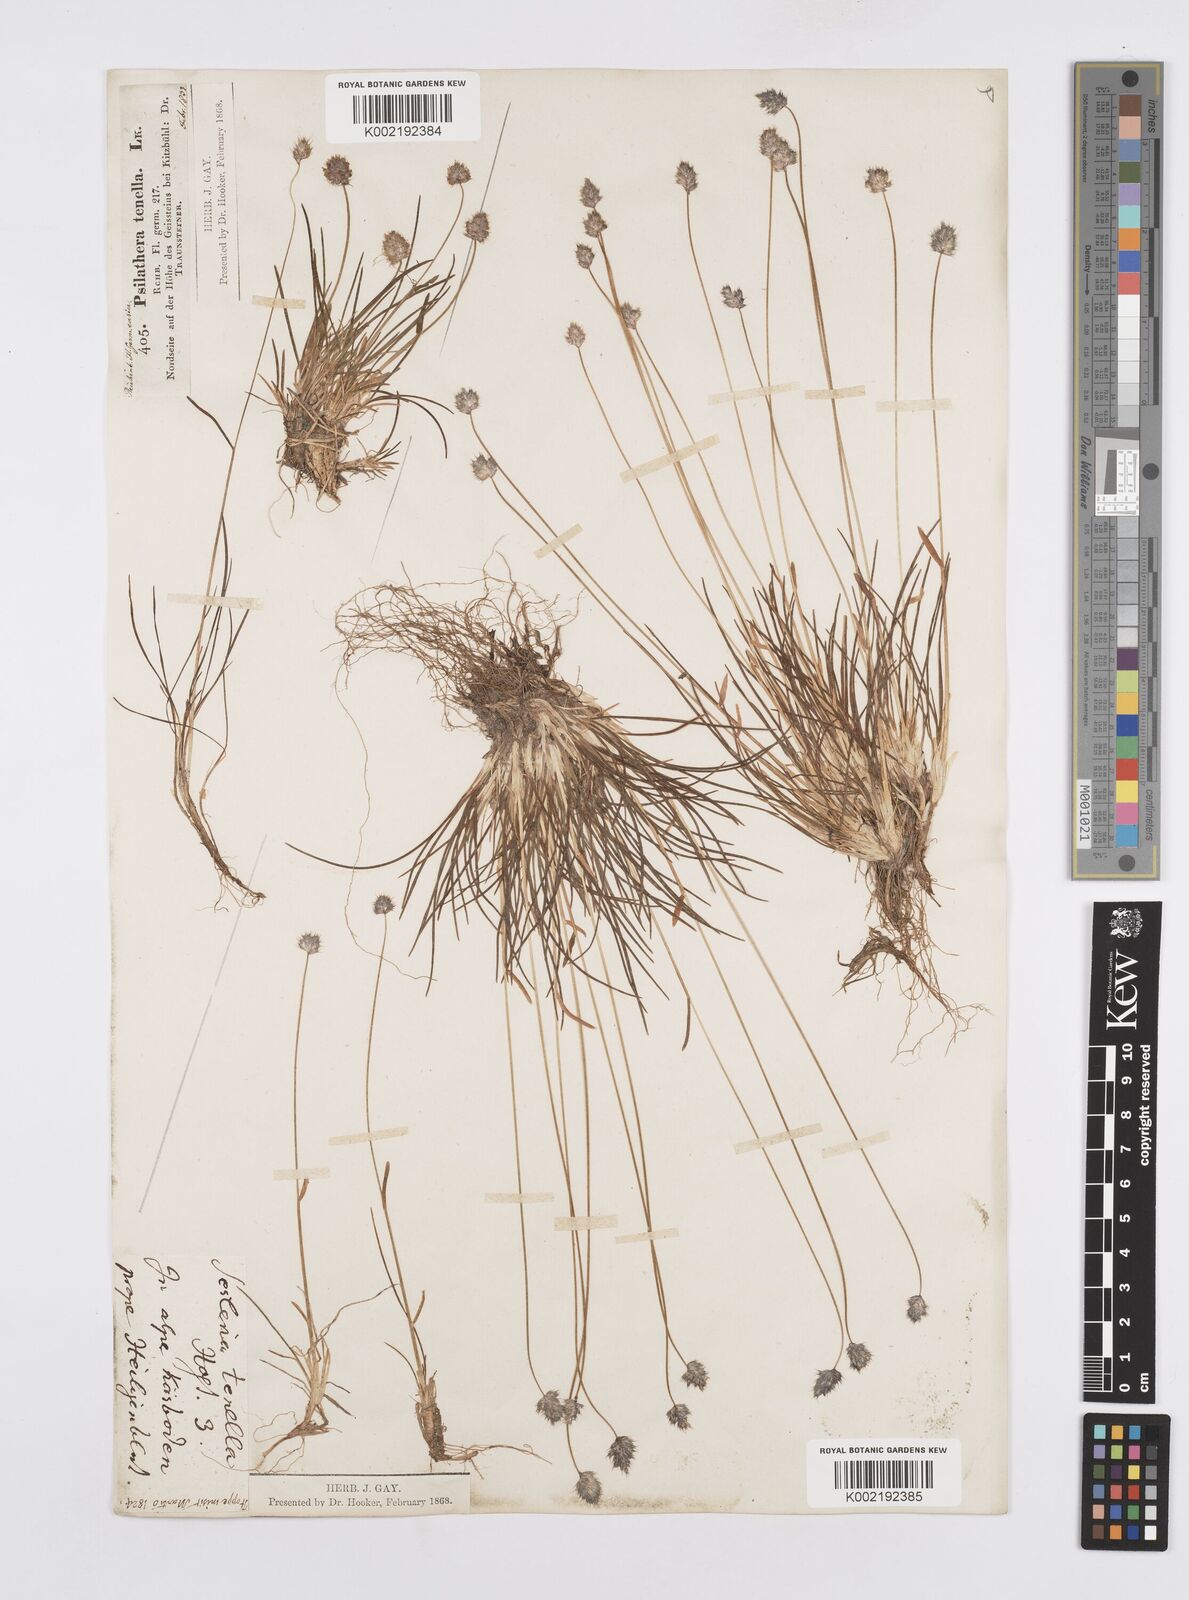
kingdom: Plantae
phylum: Tracheophyta
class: Liliopsida
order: Poales
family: Poaceae
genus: Psilathera
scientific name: Psilathera ovata
